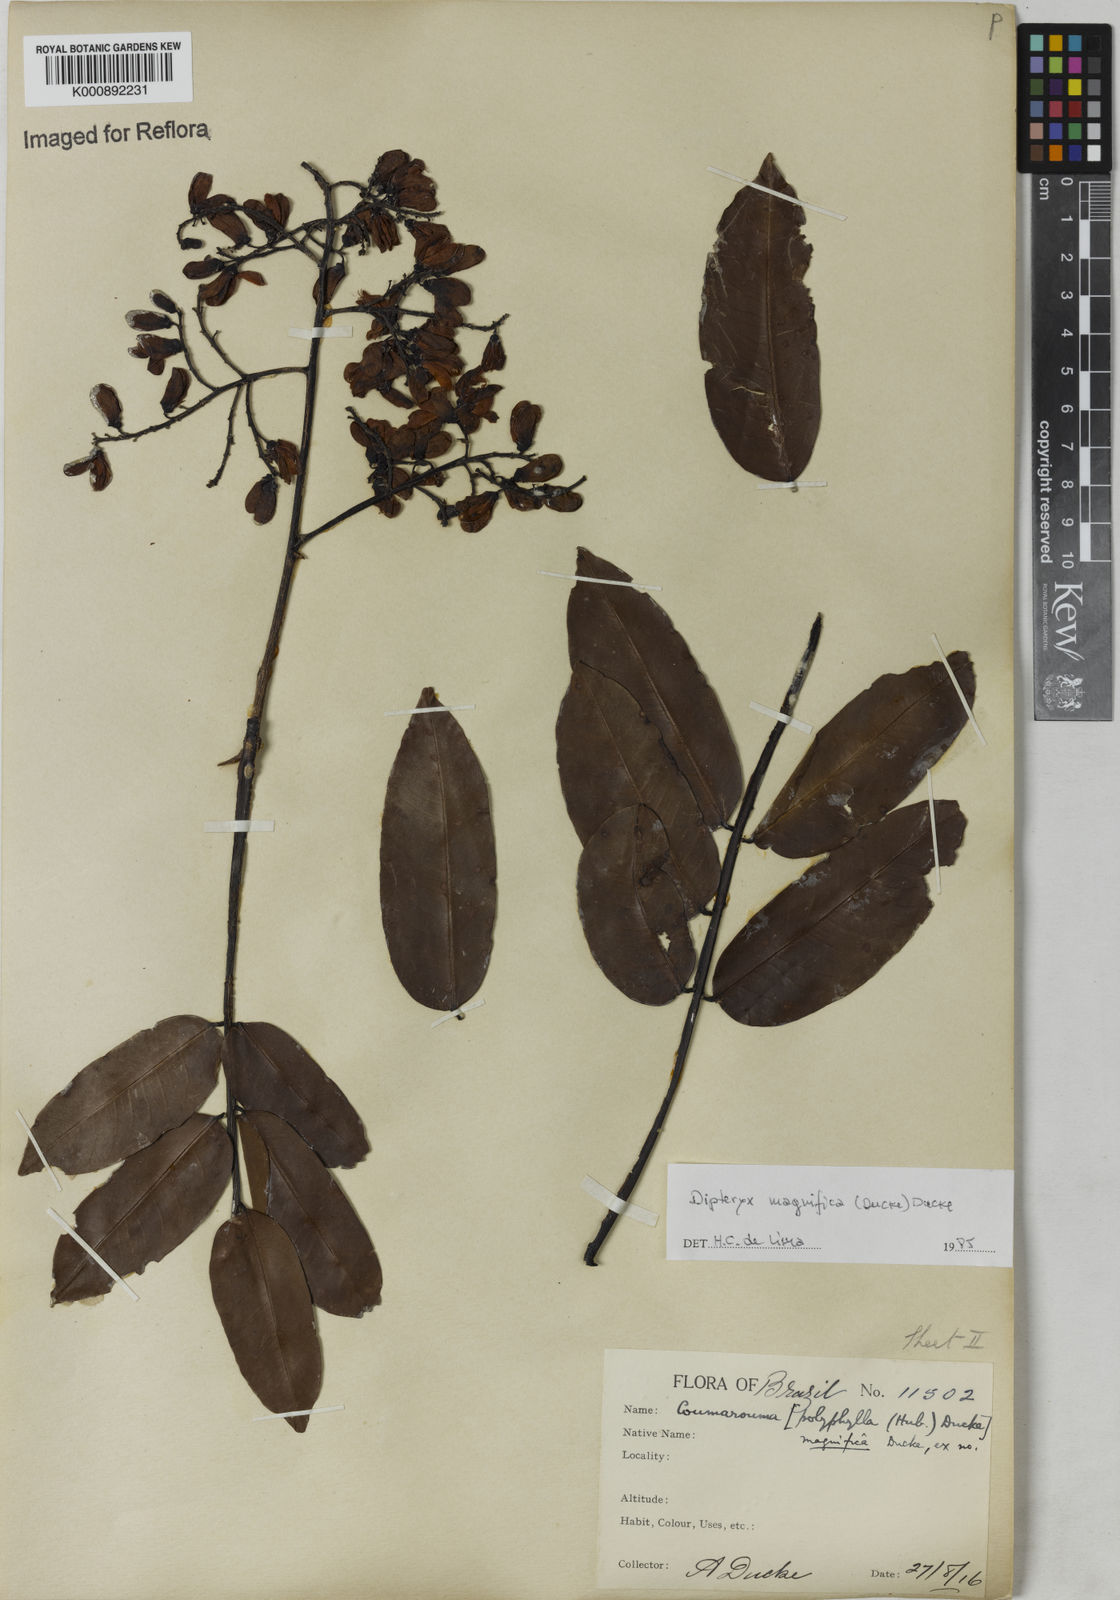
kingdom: Plantae
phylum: Tracheophyta
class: Magnoliopsida
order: Fabales
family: Fabaceae
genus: Dipteryx
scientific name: Dipteryx magnifica
